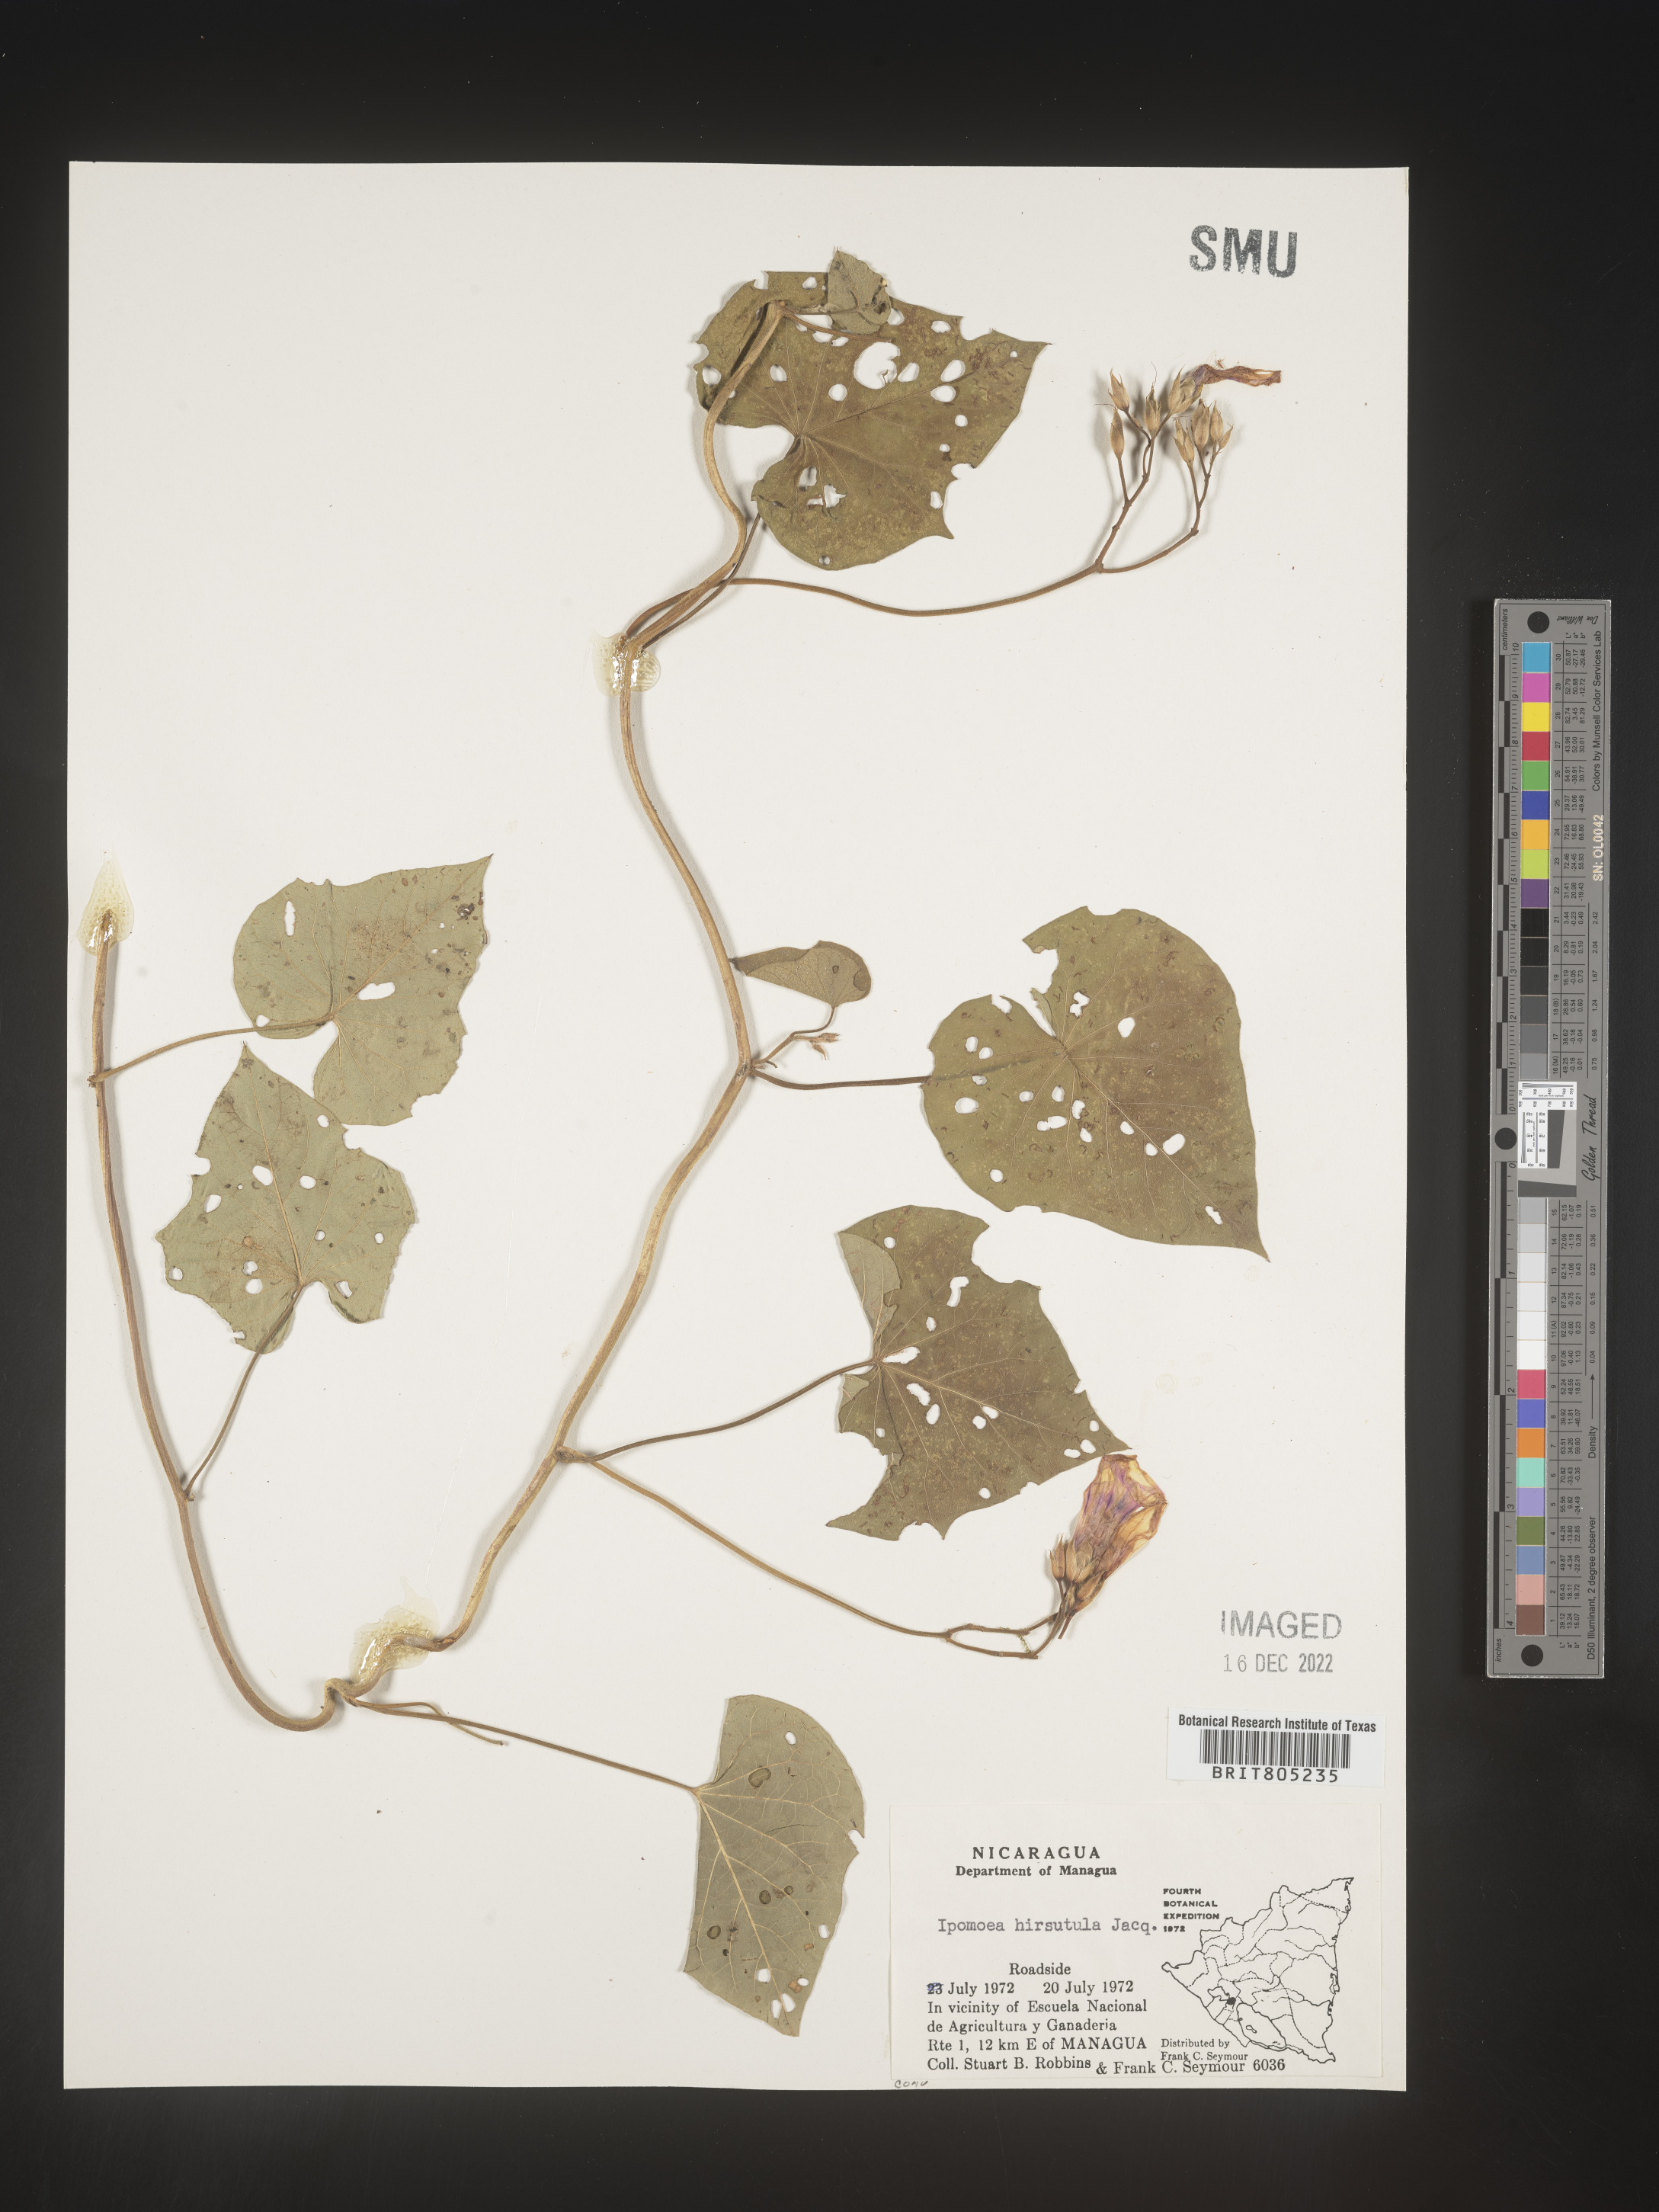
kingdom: Plantae
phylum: Tracheophyta
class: Magnoliopsida
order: Solanales
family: Convolvulaceae
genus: Ipomoea
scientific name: Ipomoea
